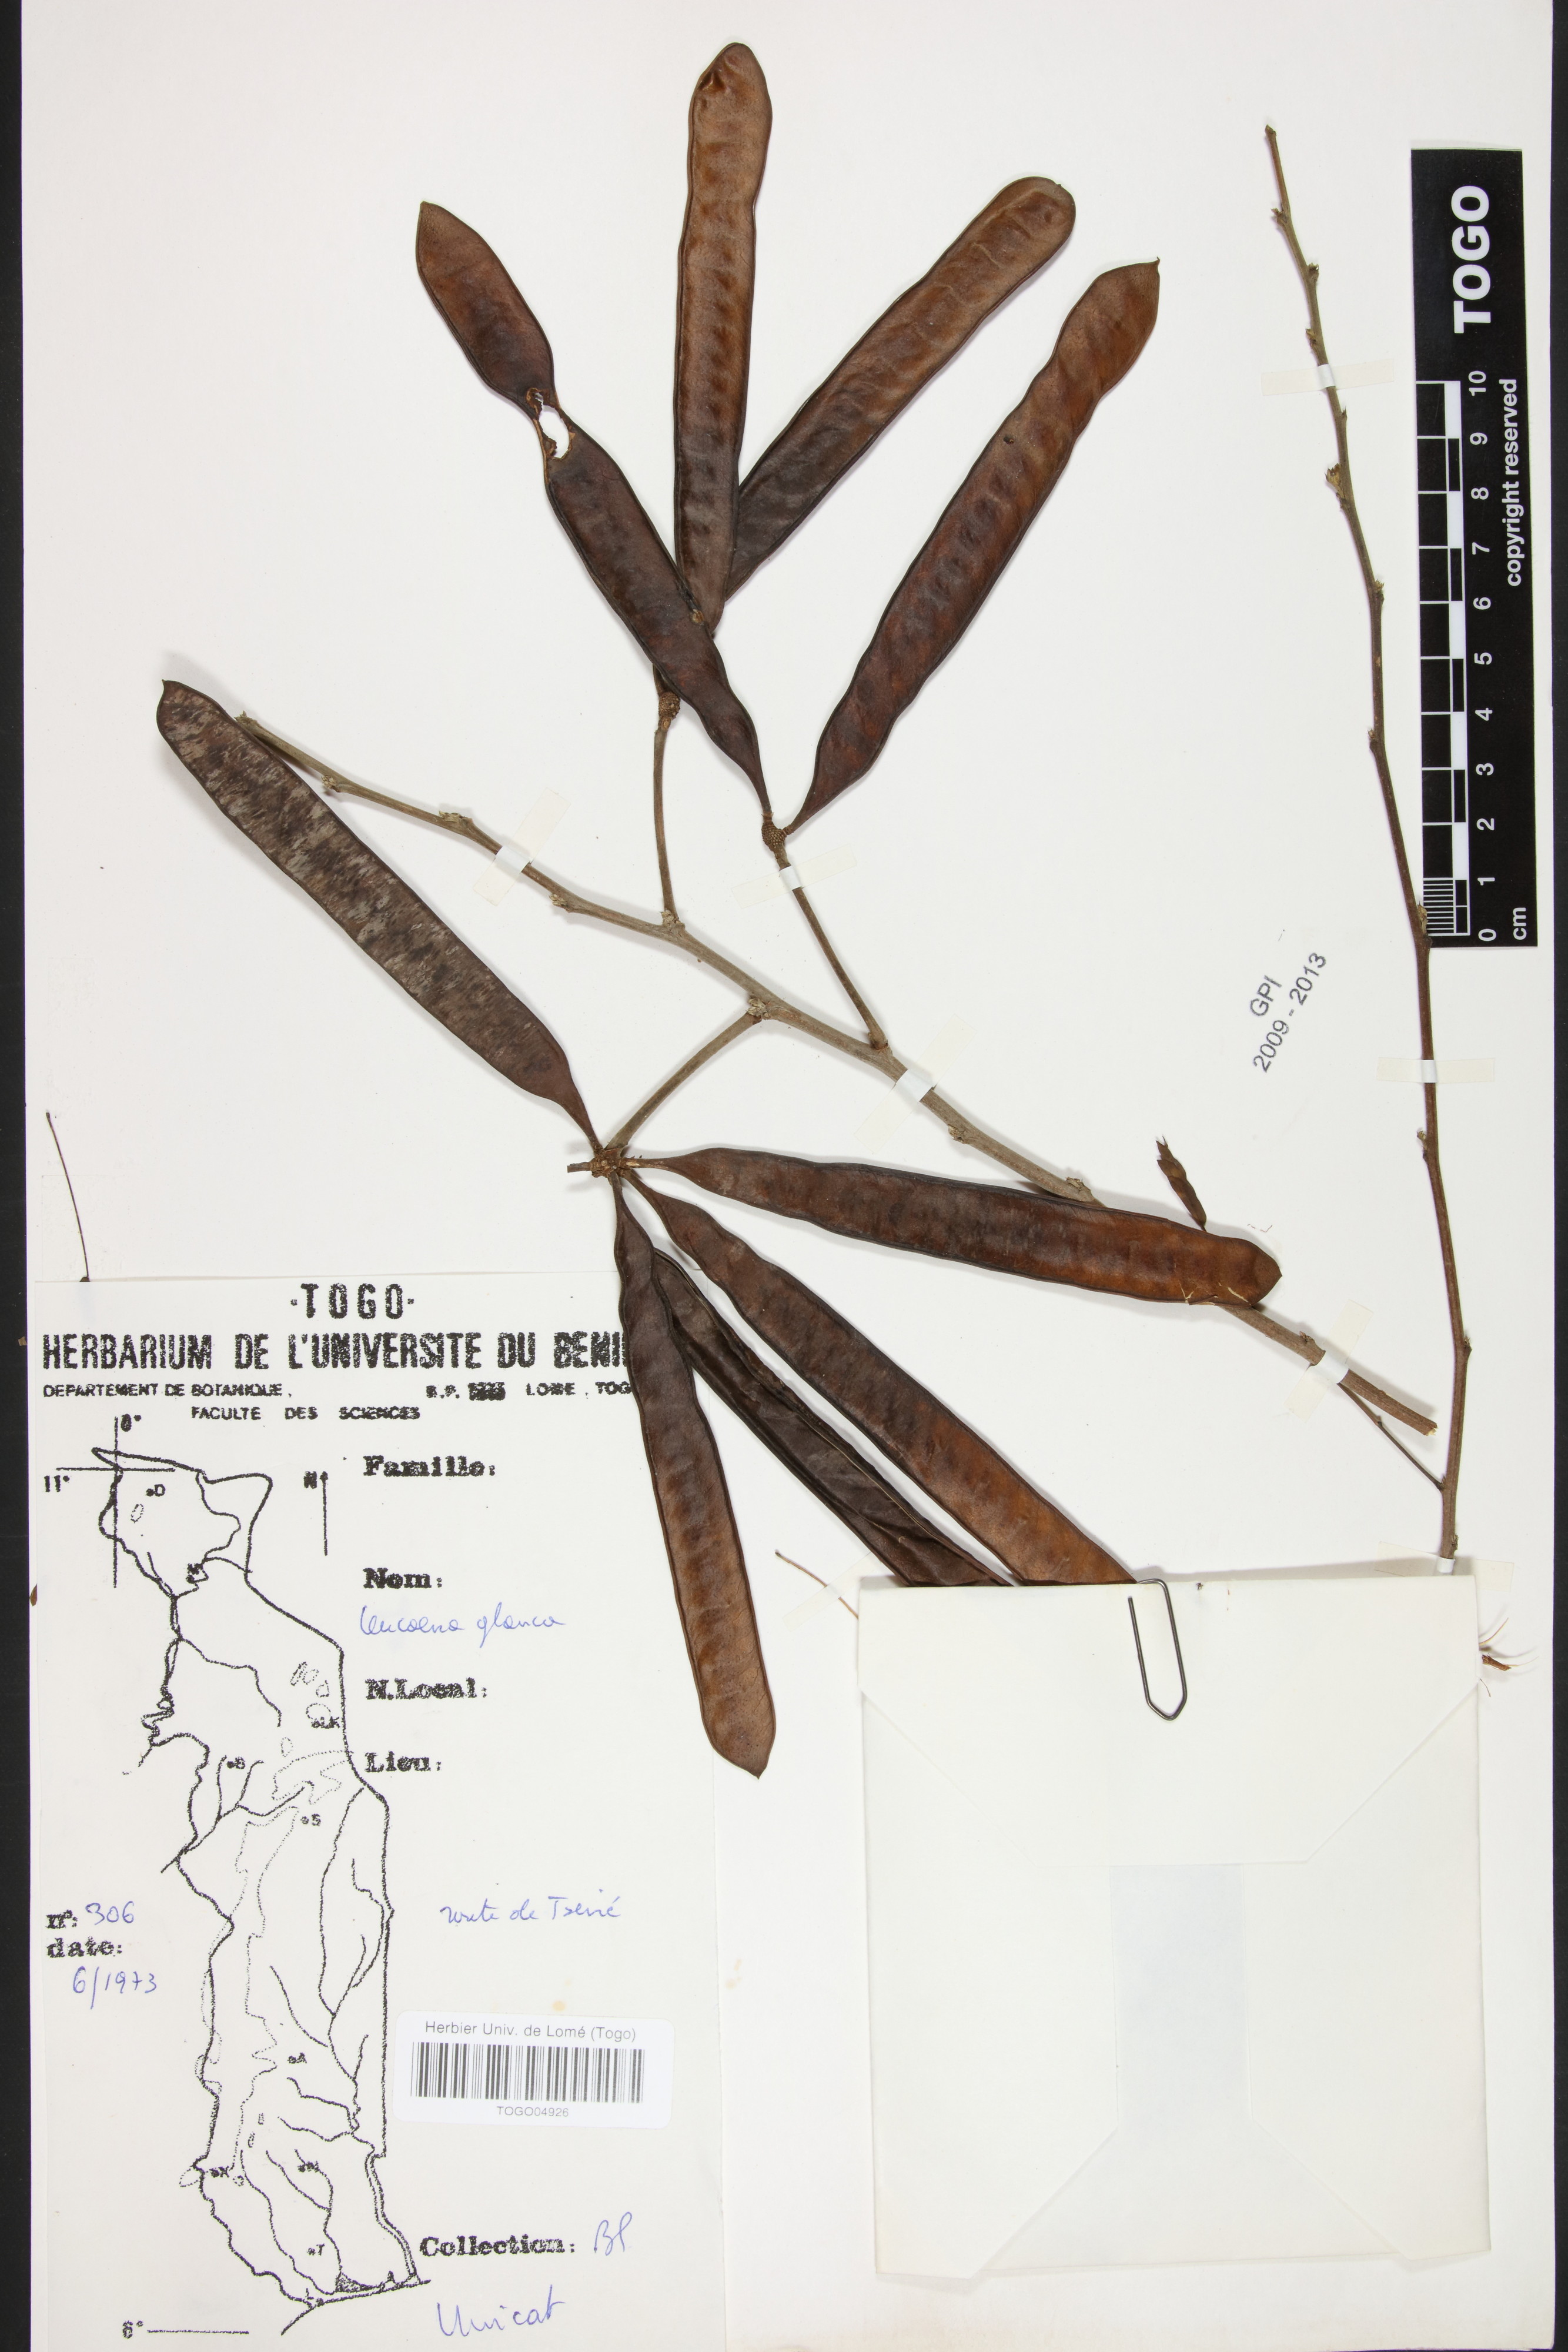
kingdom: Plantae
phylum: Tracheophyta
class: Magnoliopsida
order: Fabales
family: Fabaceae
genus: Acaciella
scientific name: Acaciella glauca
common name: Redwood
